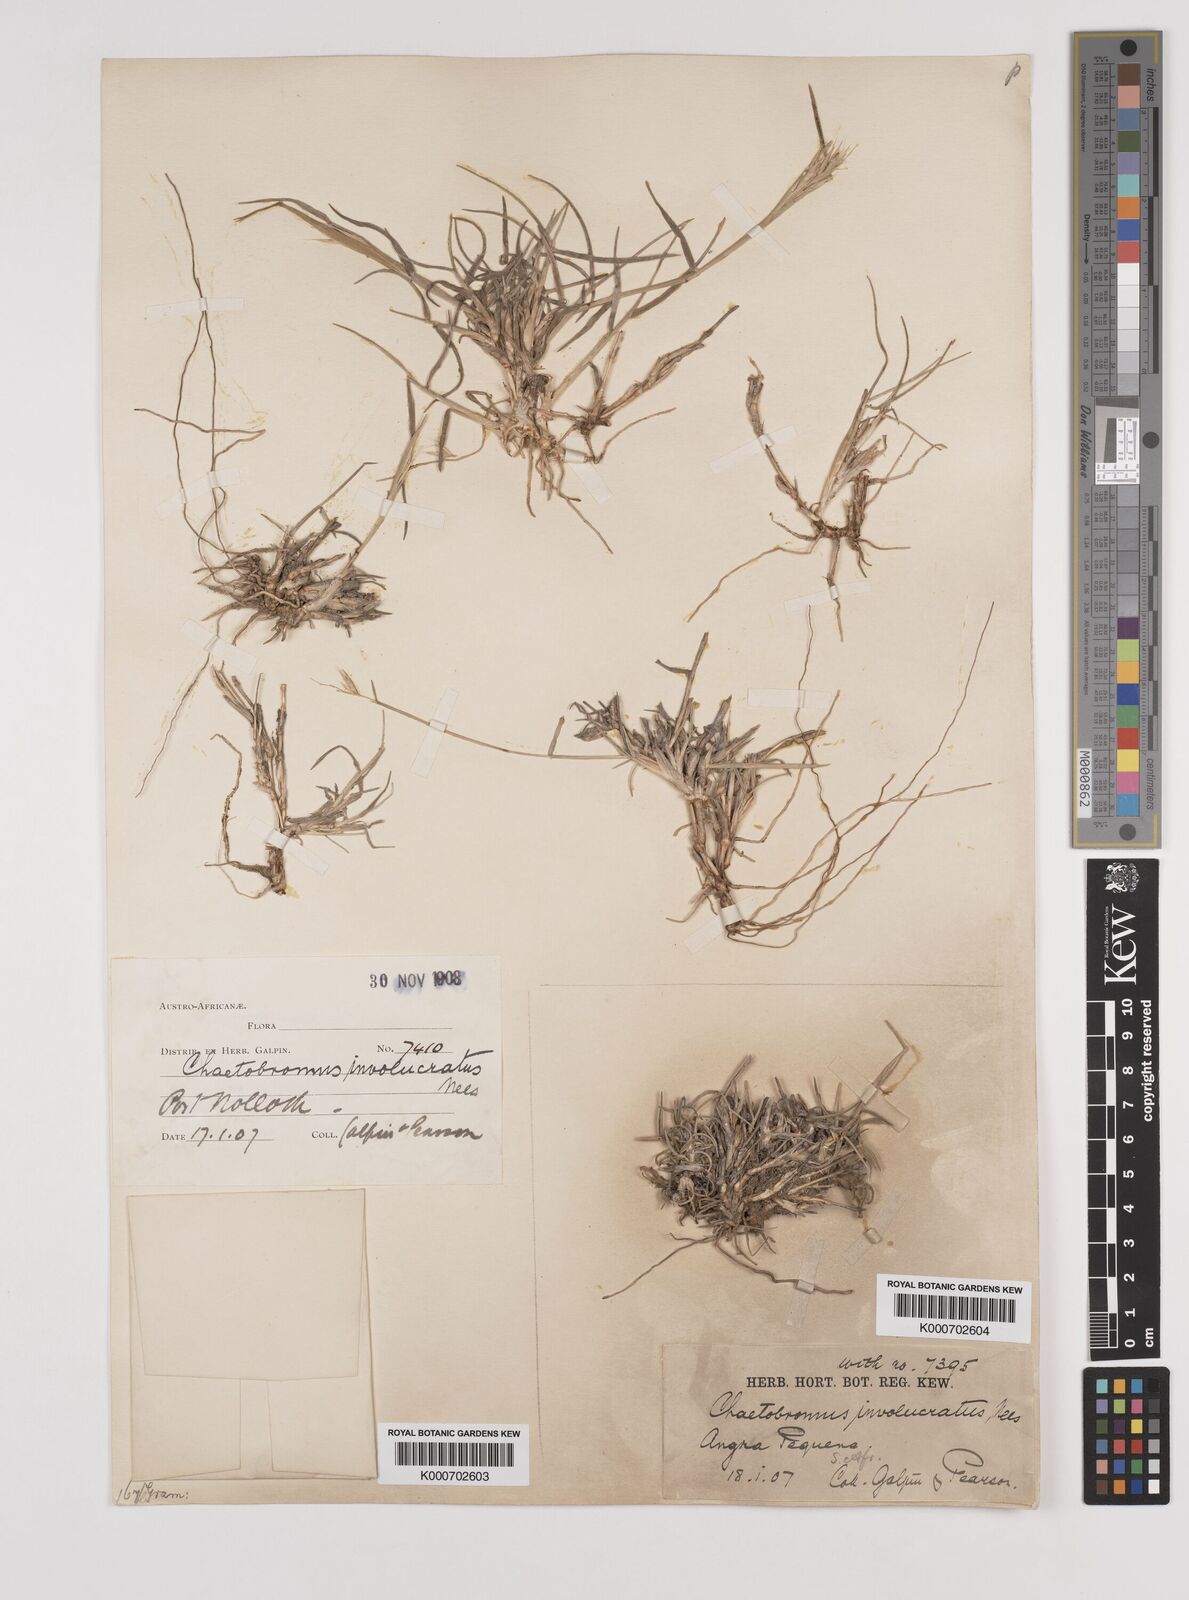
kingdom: Plantae
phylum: Tracheophyta
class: Liliopsida
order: Poales
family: Poaceae
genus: Chaetobromus
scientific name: Chaetobromus involucratus
